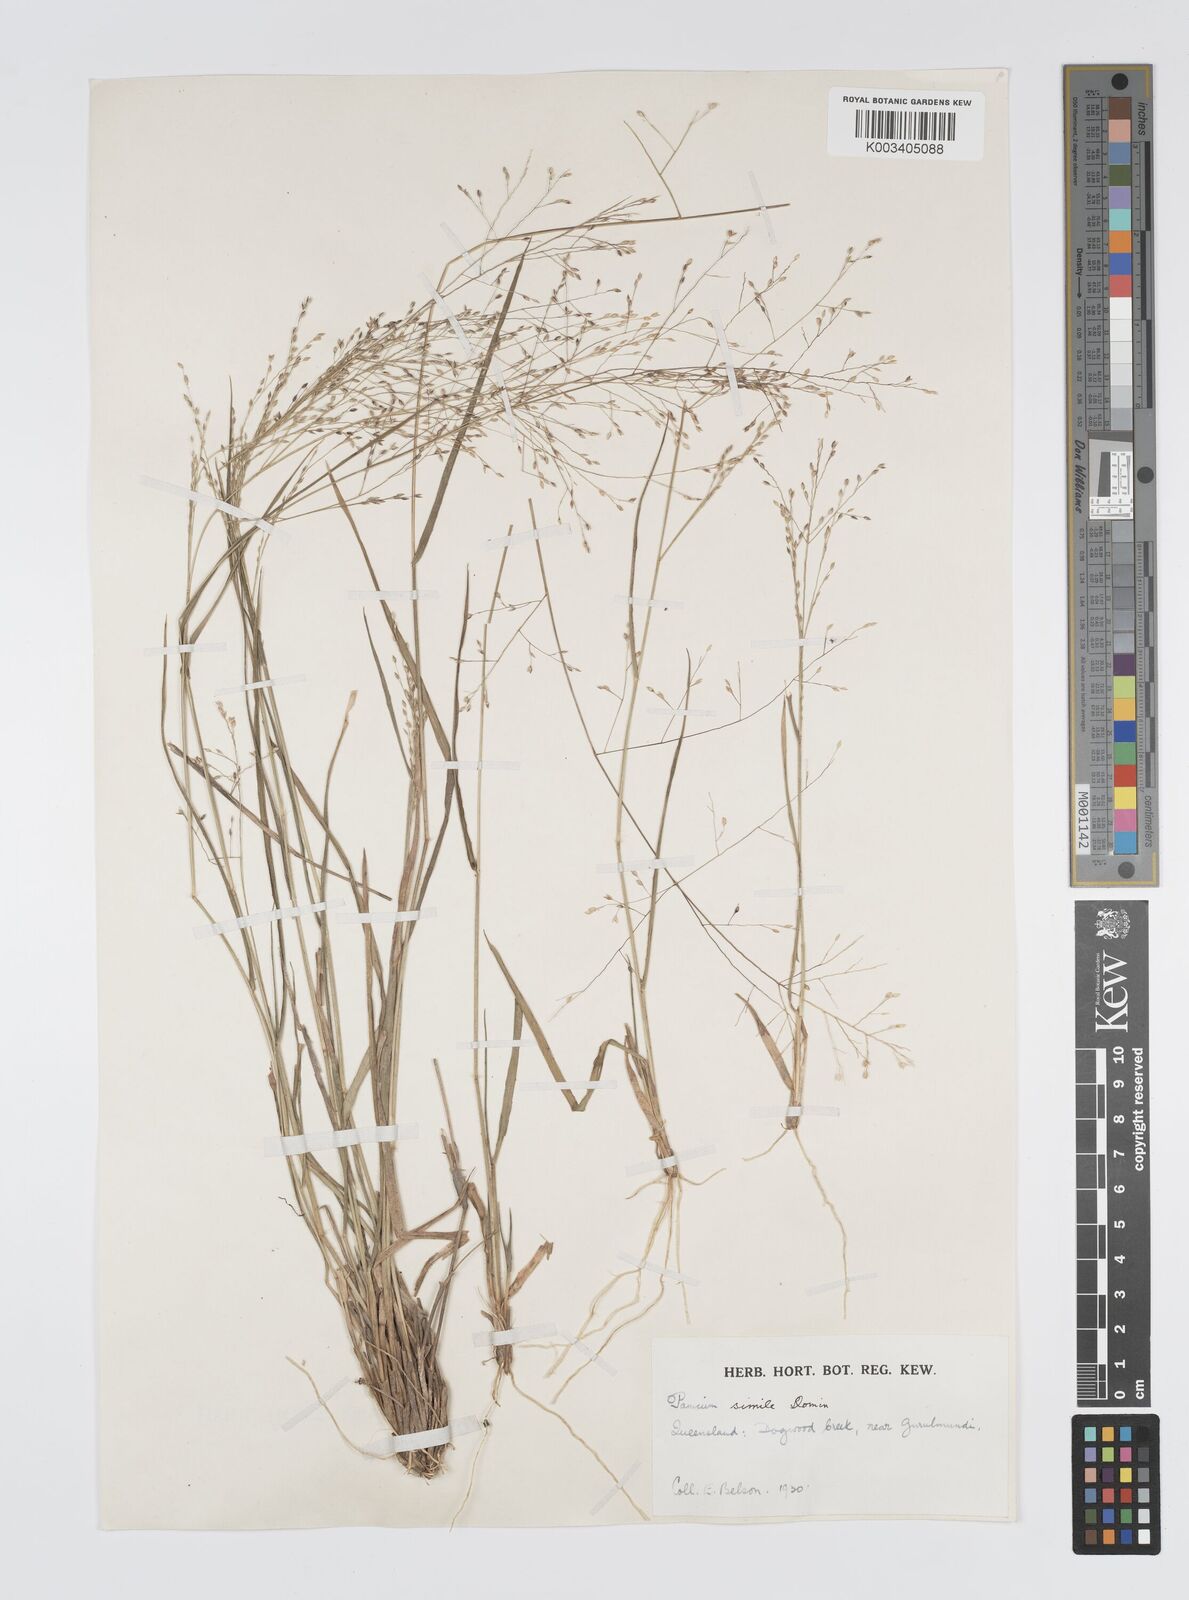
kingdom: Plantae
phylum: Tracheophyta
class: Liliopsida
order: Poales
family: Poaceae
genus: Panicum
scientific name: Panicum simile
